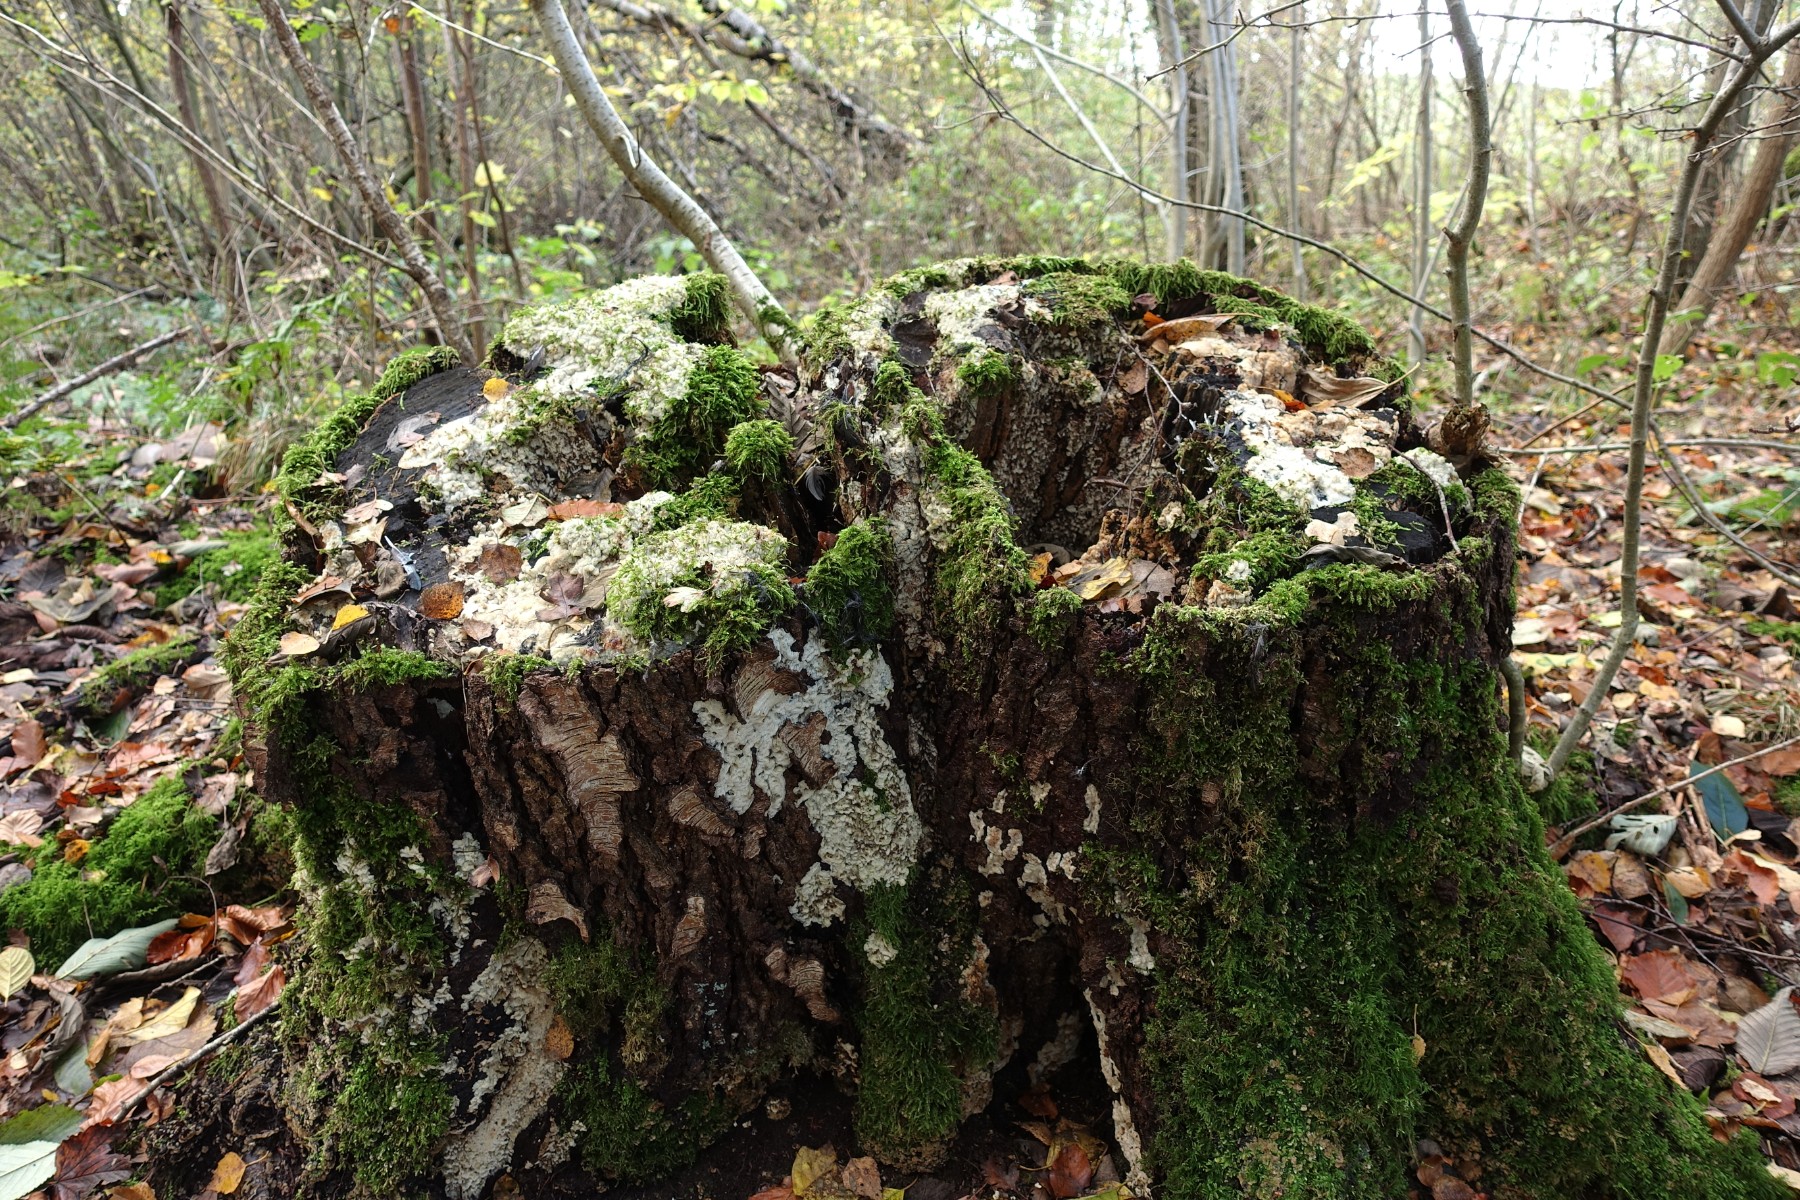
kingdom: Fungi
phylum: Basidiomycota
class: Agaricomycetes
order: Polyporales
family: Meruliaceae
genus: Physisporinus
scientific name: Physisporinus vitreus
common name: mastesvamp
